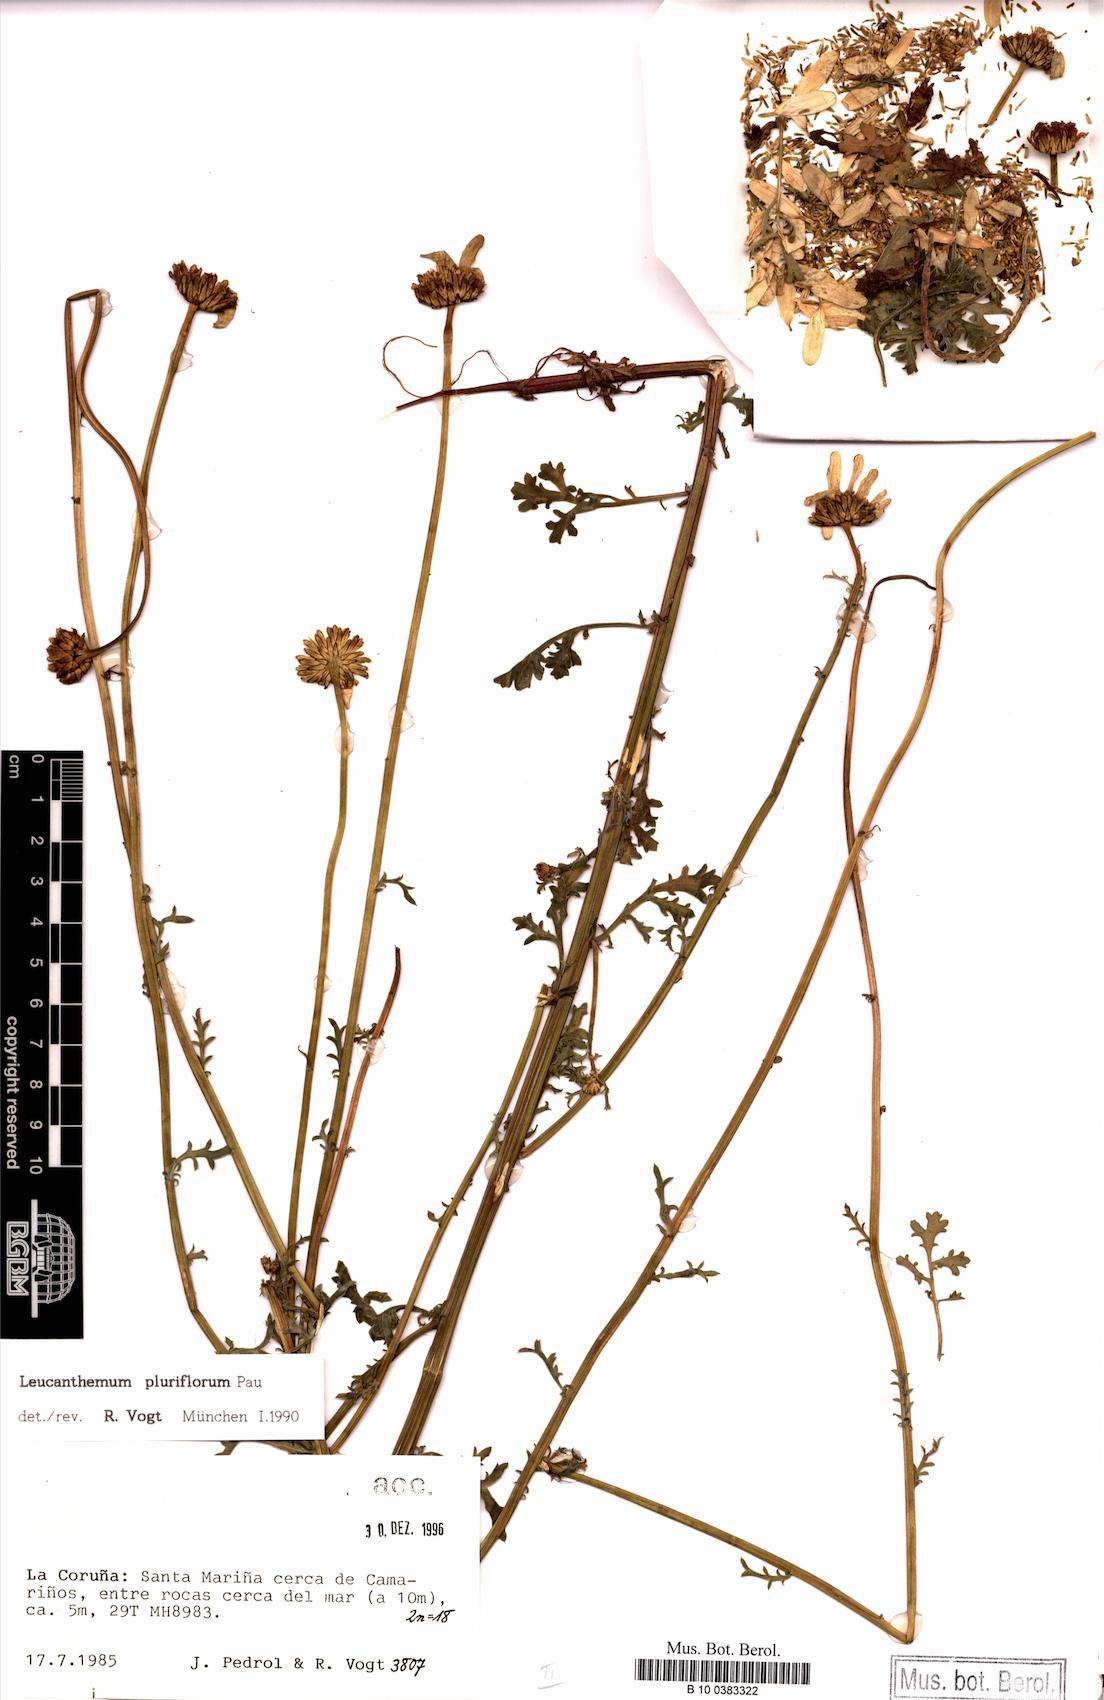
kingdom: Plantae
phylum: Tracheophyta
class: Magnoliopsida
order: Asterales
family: Asteraceae
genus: Leucanthemum
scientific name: Leucanthemum pluriflorum
